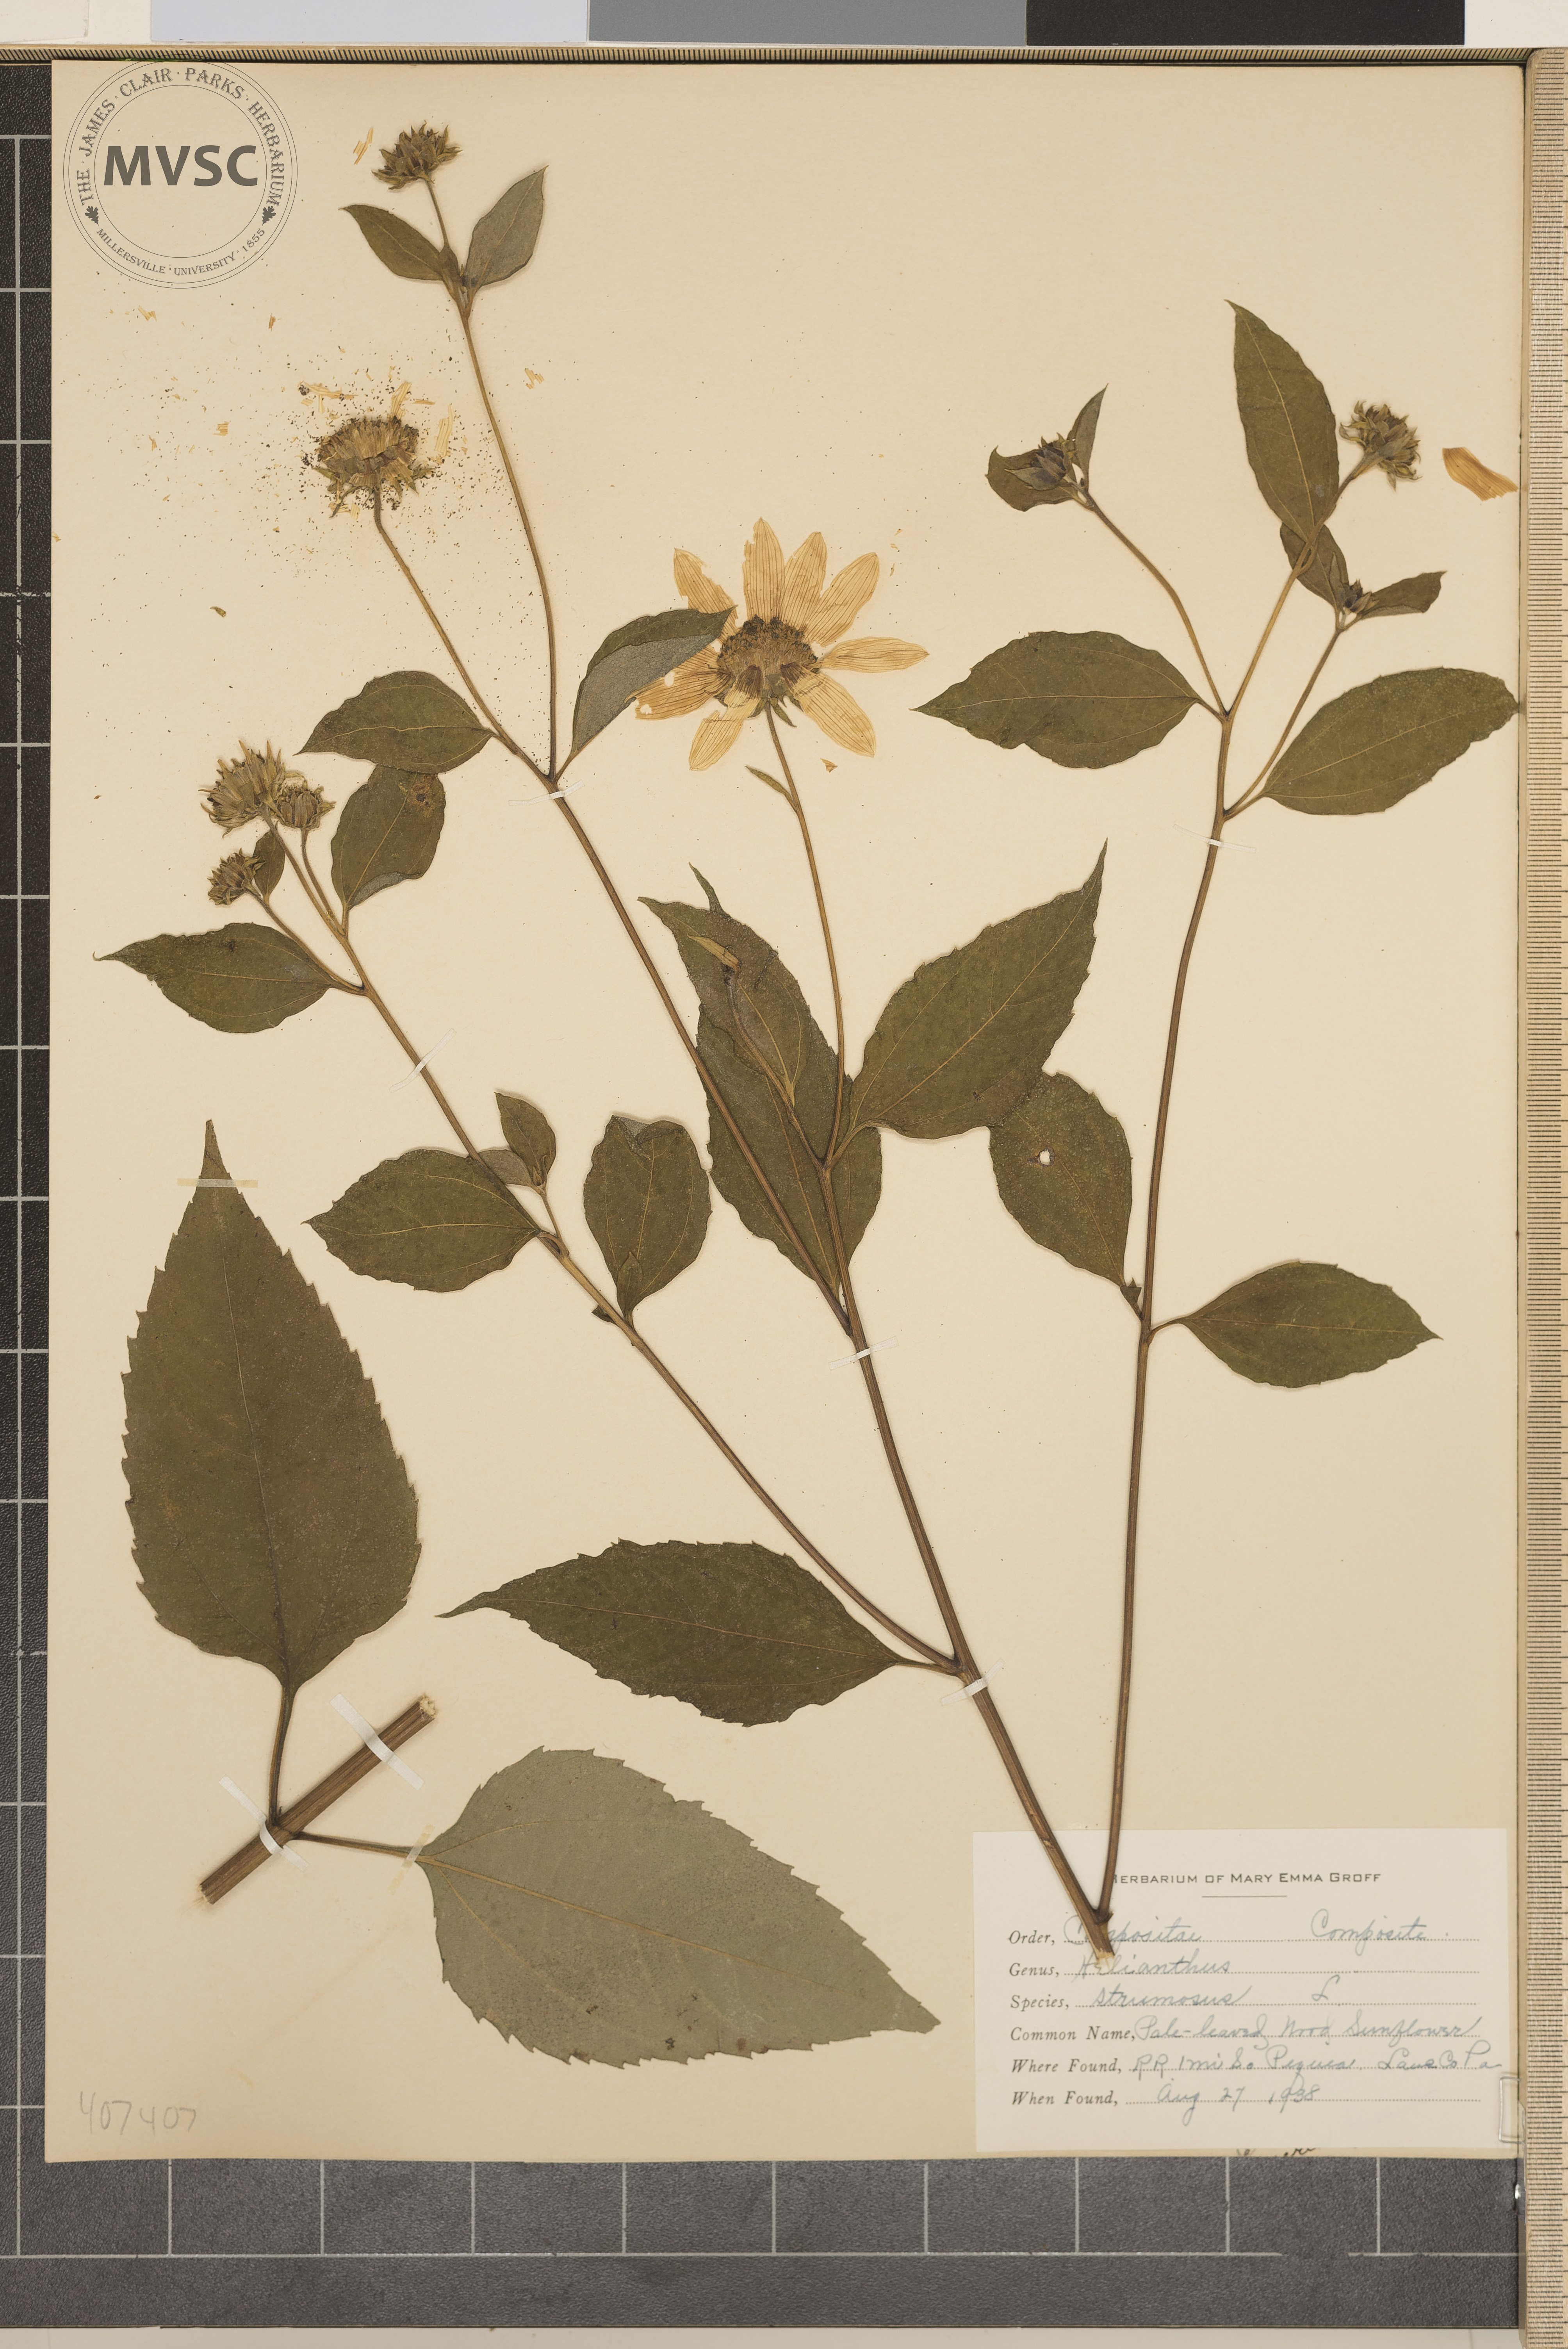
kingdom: Plantae
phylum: Tracheophyta
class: Magnoliopsida
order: Asterales
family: Asteraceae
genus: Helianthus
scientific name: Helianthus strumosus
